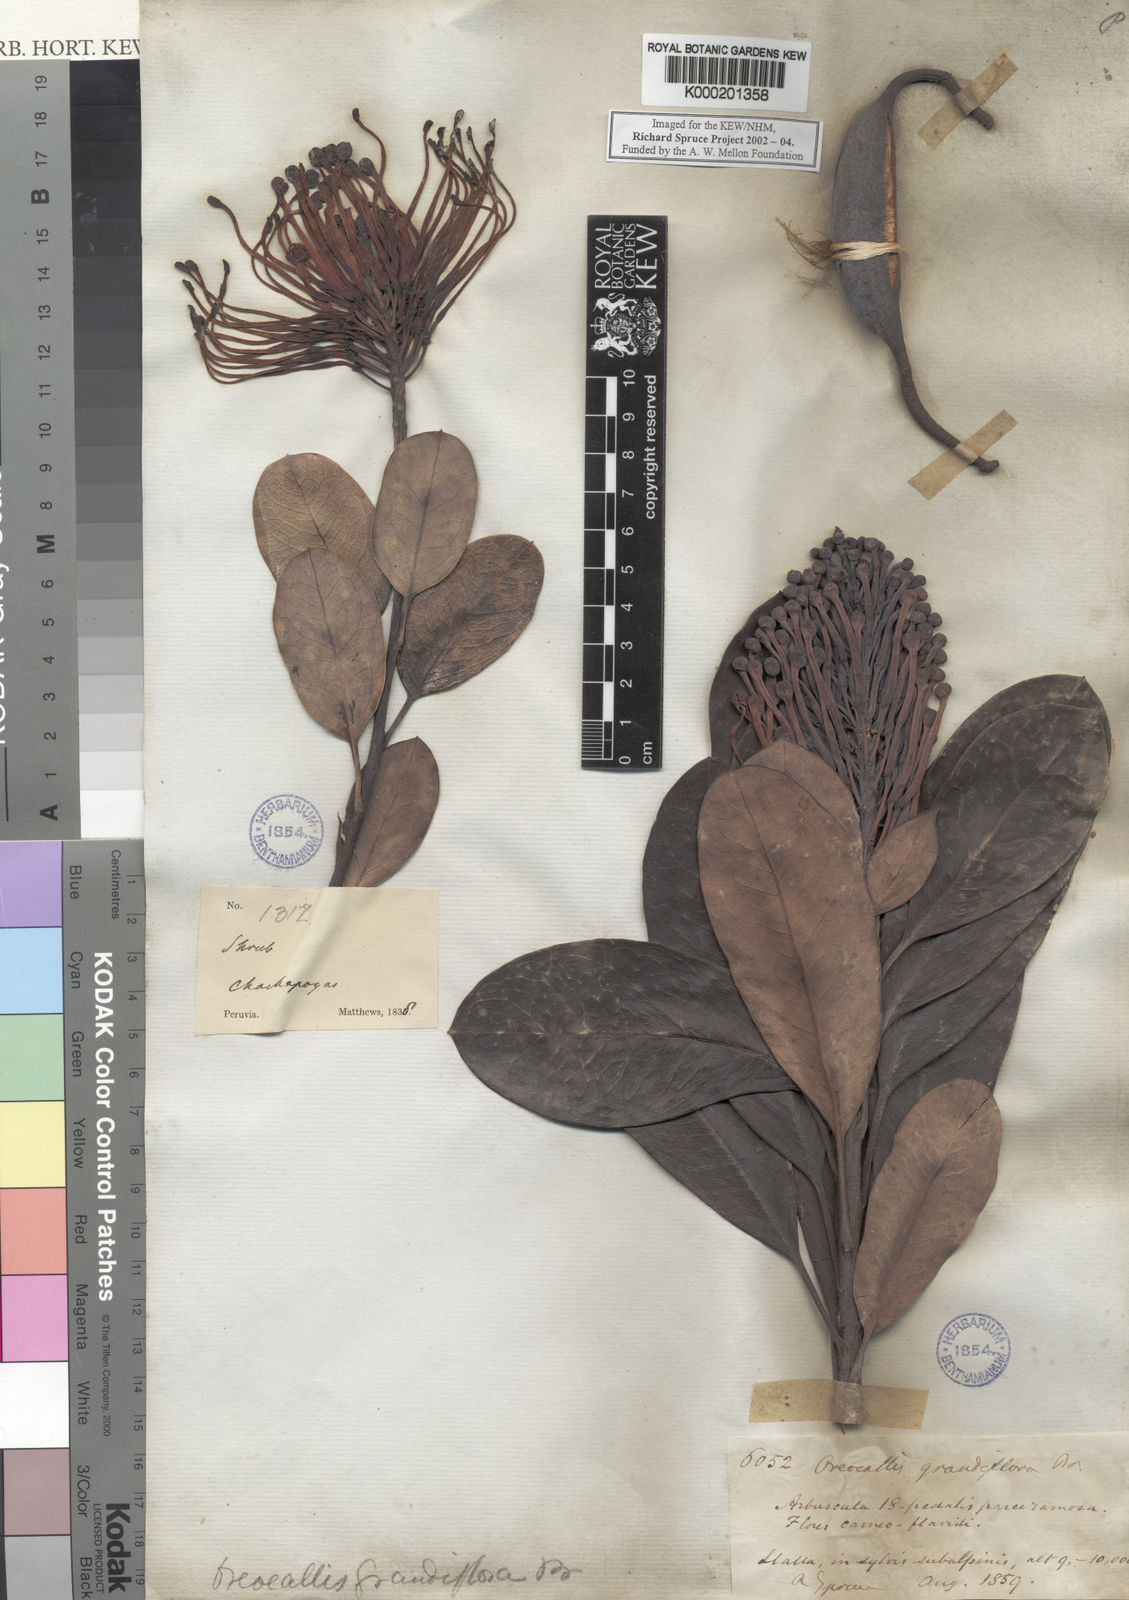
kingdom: Plantae
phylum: Tracheophyta
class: Magnoliopsida
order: Proteales
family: Proteaceae
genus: Oreocallis
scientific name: Oreocallis grandiflora
